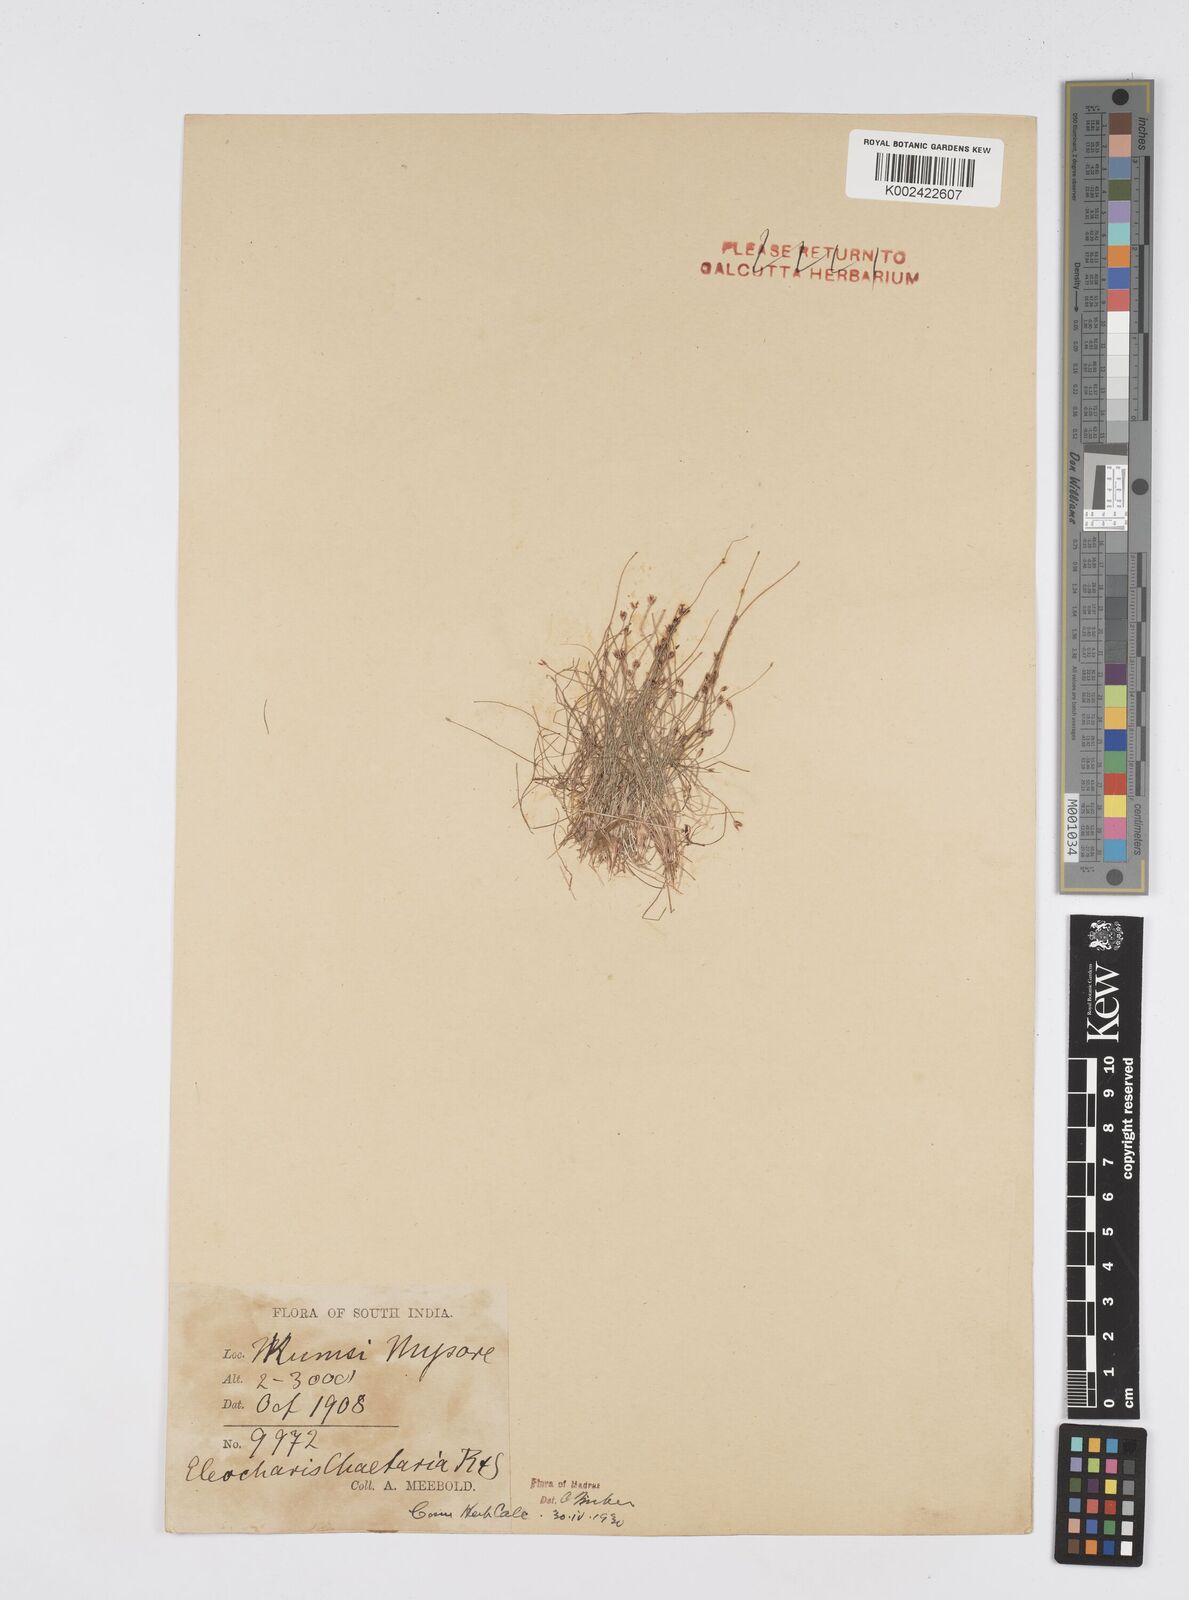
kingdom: Plantae
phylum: Tracheophyta
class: Liliopsida
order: Poales
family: Cyperaceae
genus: Eleocharis
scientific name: Eleocharis retroflexa
